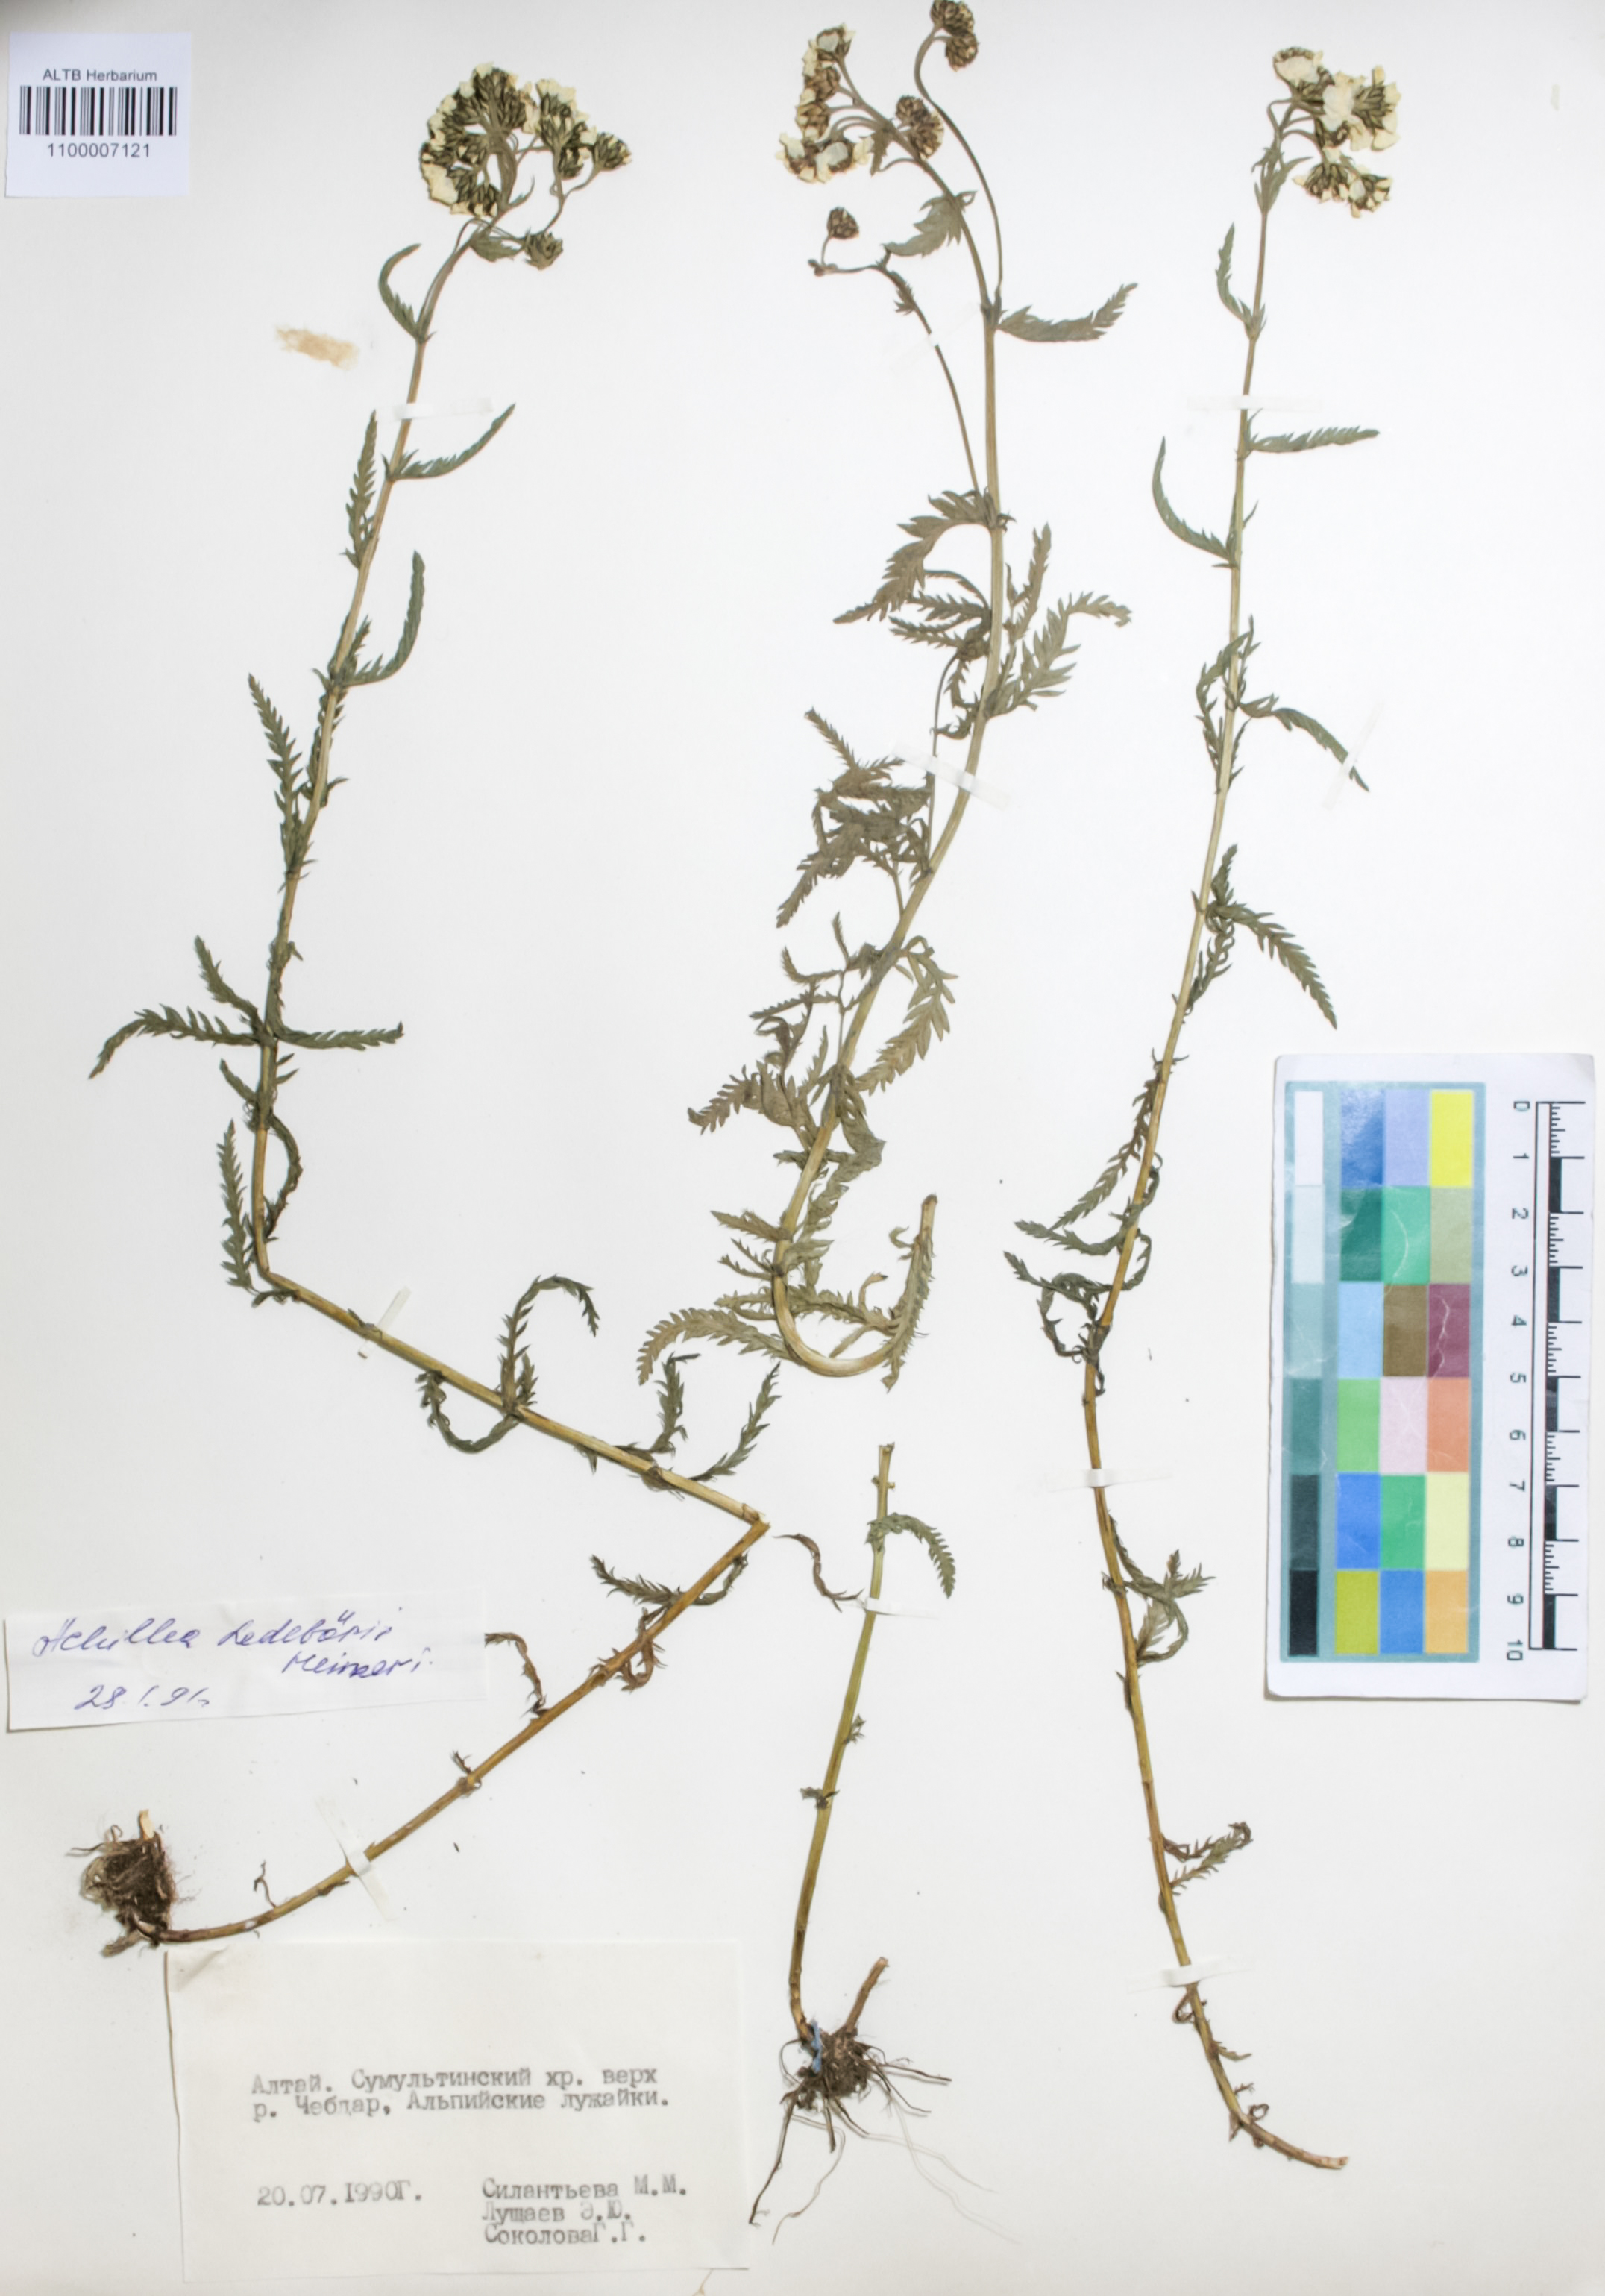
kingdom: Plantae
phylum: Tracheophyta
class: Magnoliopsida
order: Asterales
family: Asteraceae
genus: Achillea
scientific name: Achillea ledebourii
